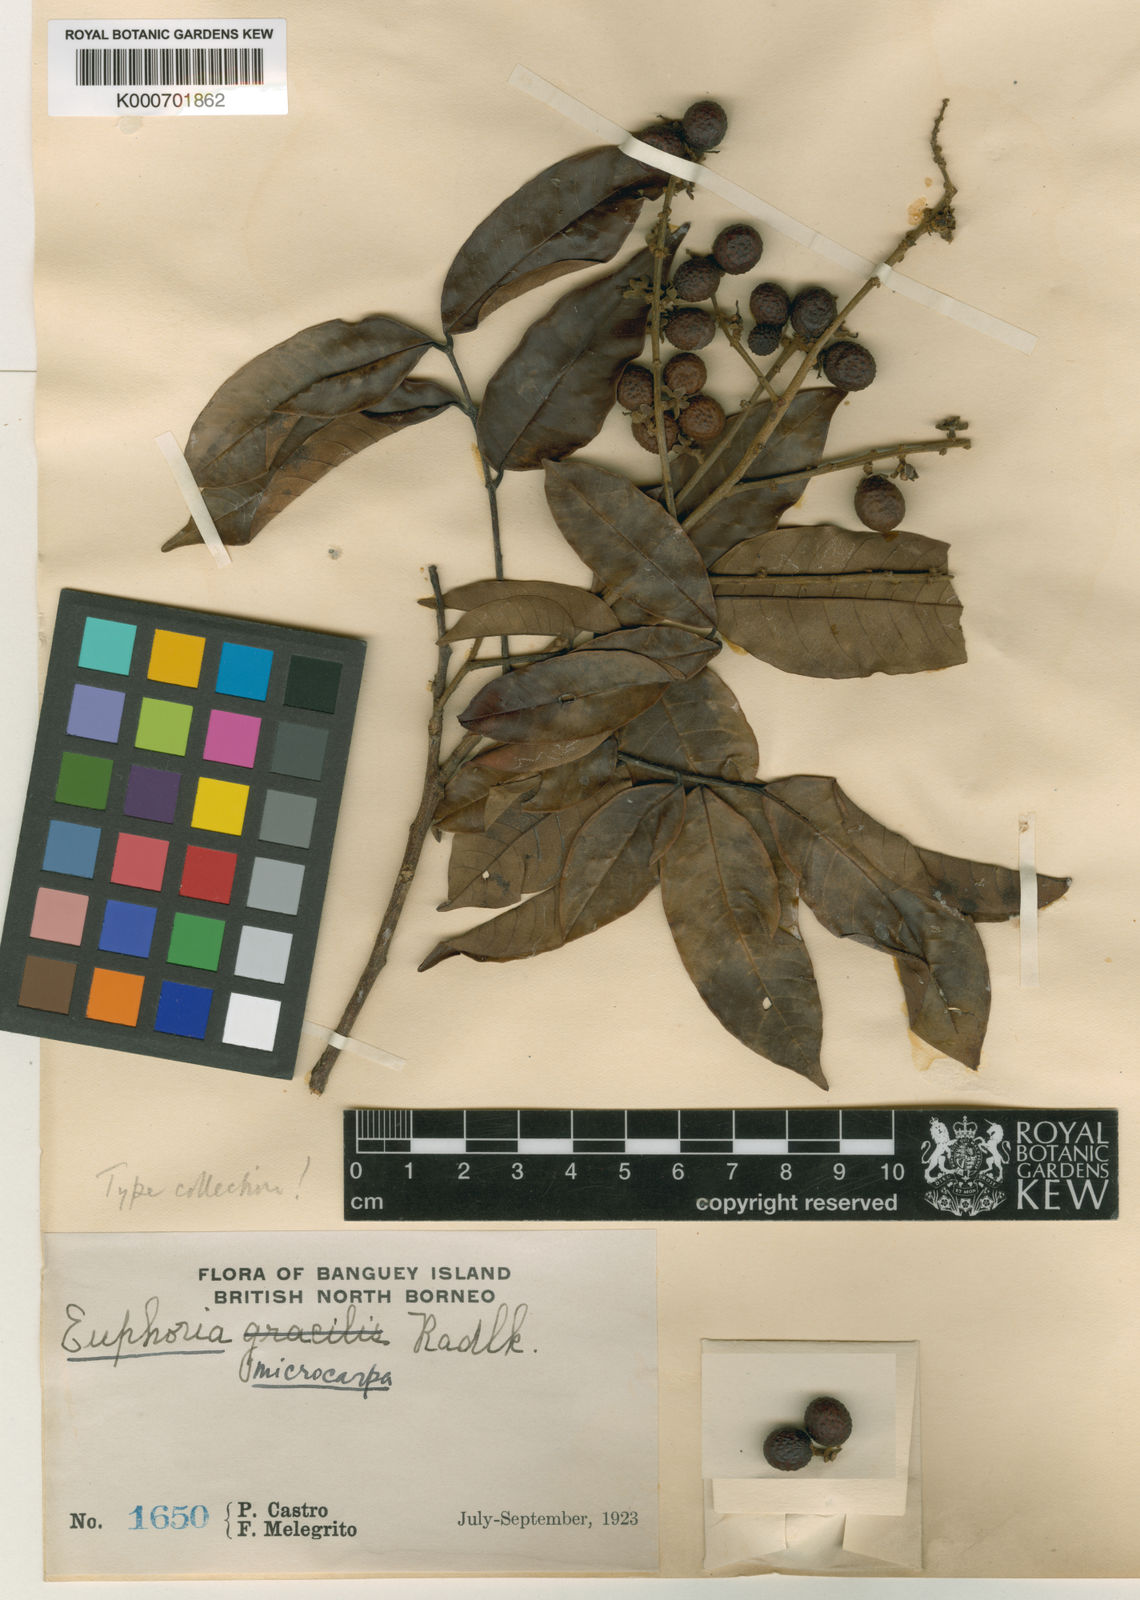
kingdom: Plantae
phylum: Tracheophyta
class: Magnoliopsida
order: Sapindales
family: Sapindaceae
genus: Dimocarpus
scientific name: Dimocarpus malesianus
